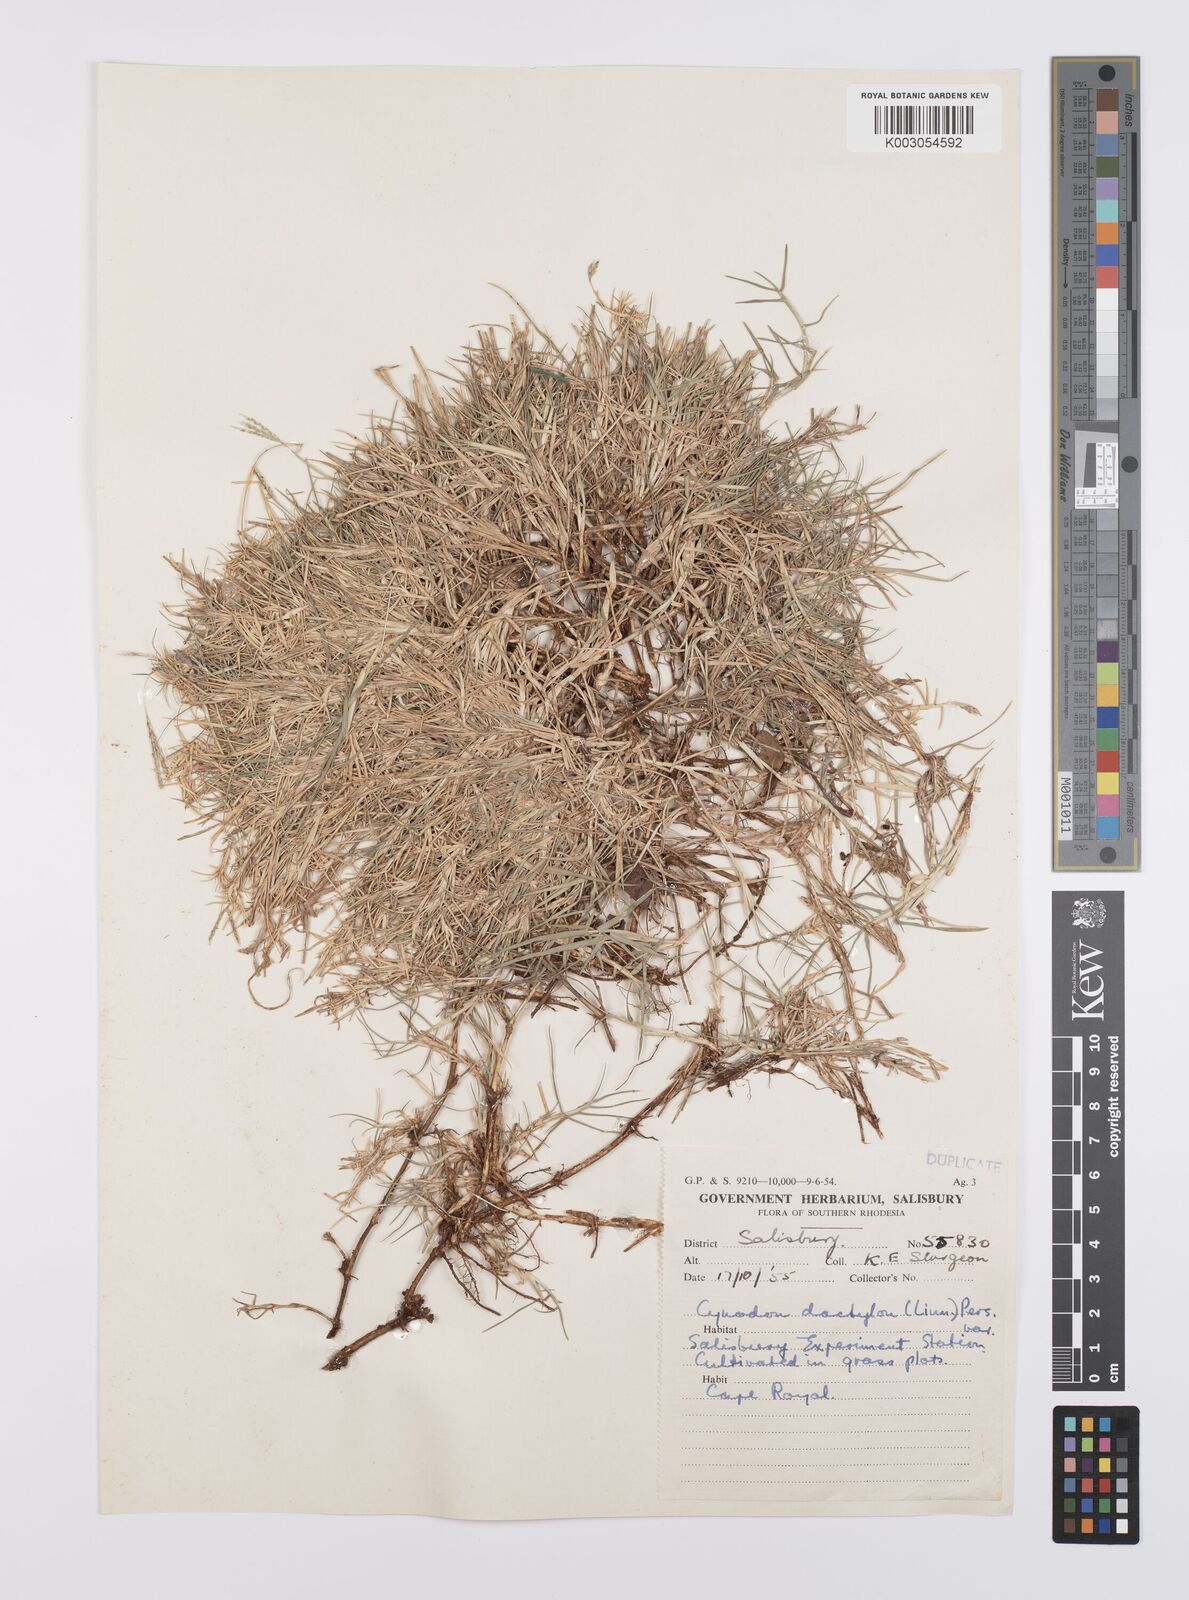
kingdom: Plantae
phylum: Tracheophyta
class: Liliopsida
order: Poales
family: Poaceae
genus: Cynodon
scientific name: Cynodon dactylon
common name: Bermuda grass
